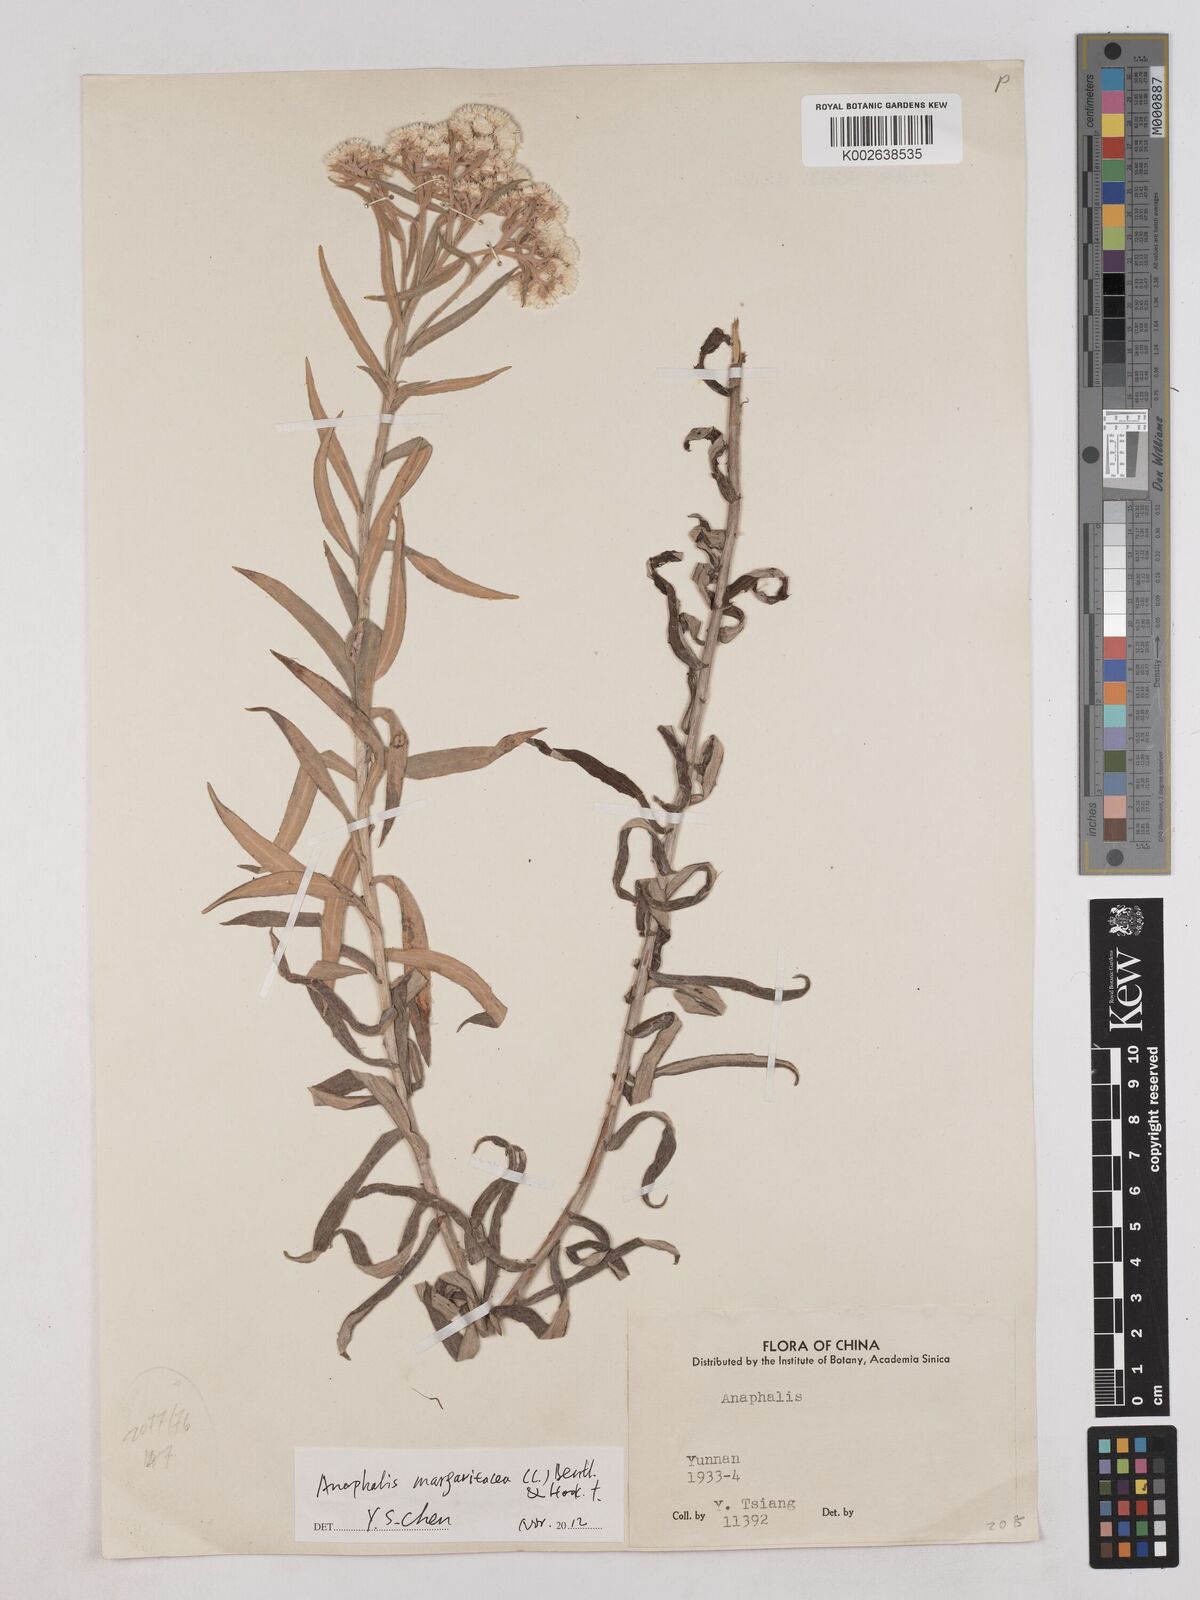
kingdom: Plantae
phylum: Tracheophyta
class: Magnoliopsida
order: Asterales
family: Asteraceae
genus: Anaphalis
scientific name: Anaphalis
